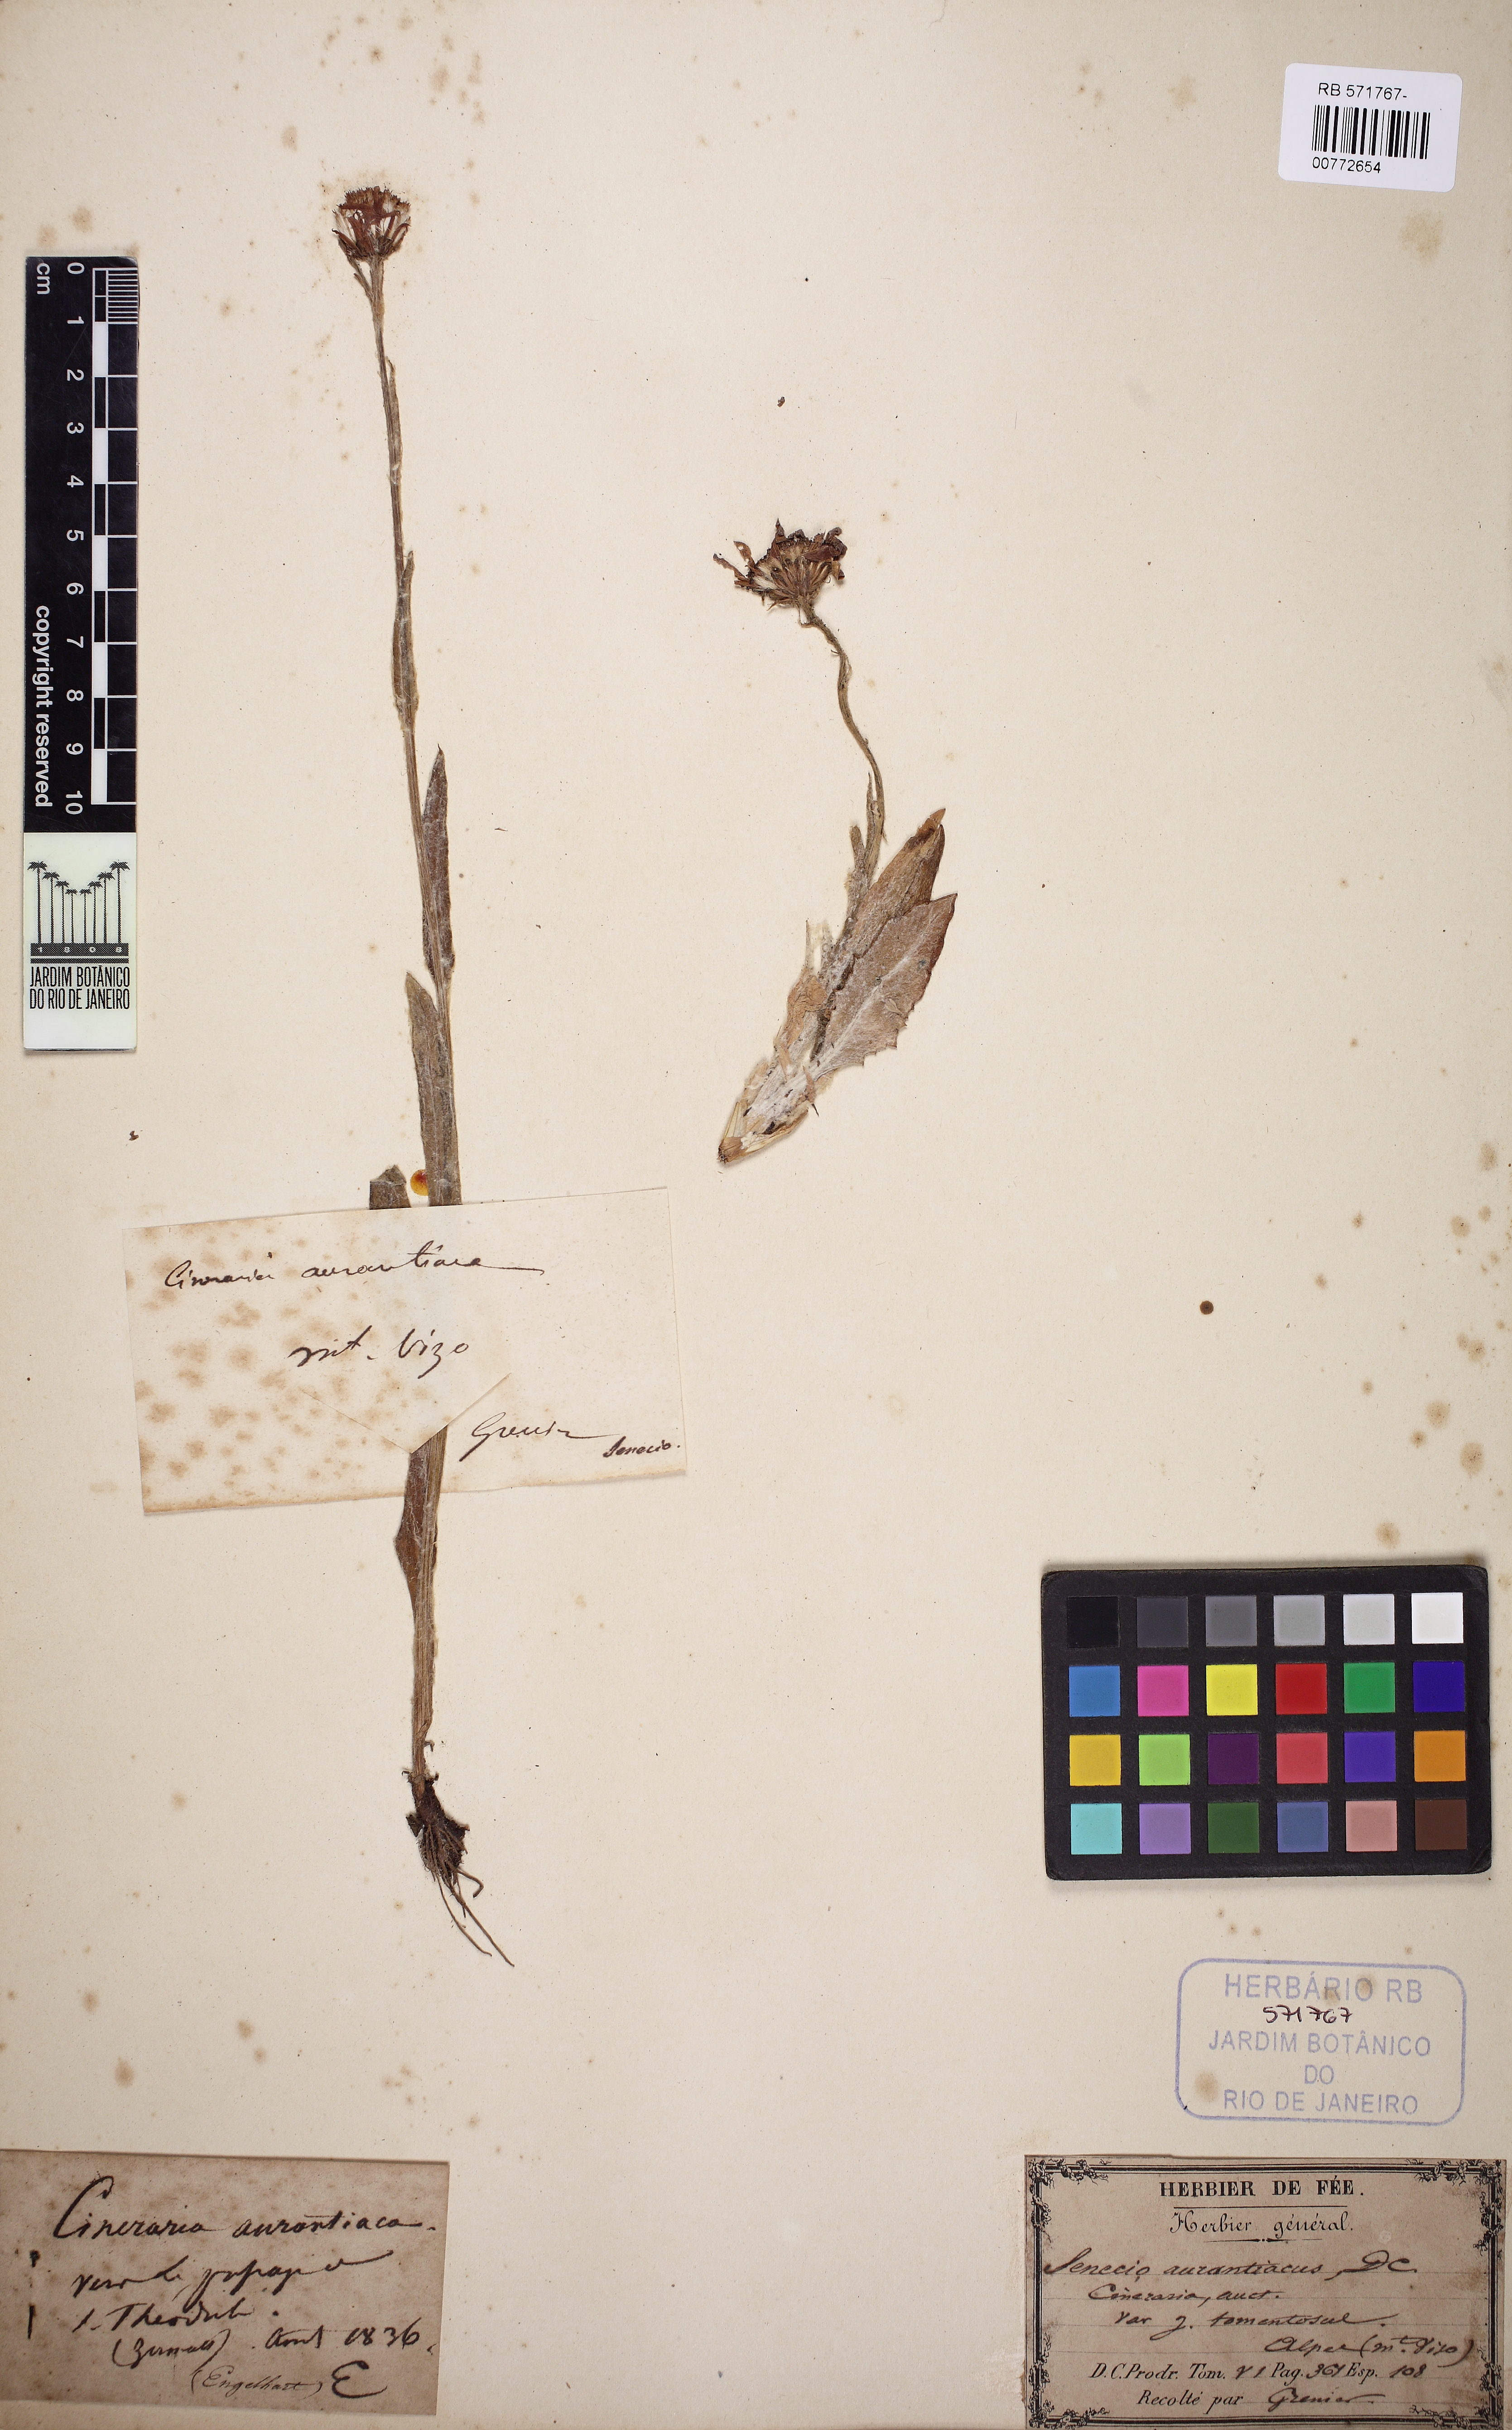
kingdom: Plantae
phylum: Tracheophyta
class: Magnoliopsida
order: Asterales
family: Asteraceae
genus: Tephroseris
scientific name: Tephroseris aurantiaca
